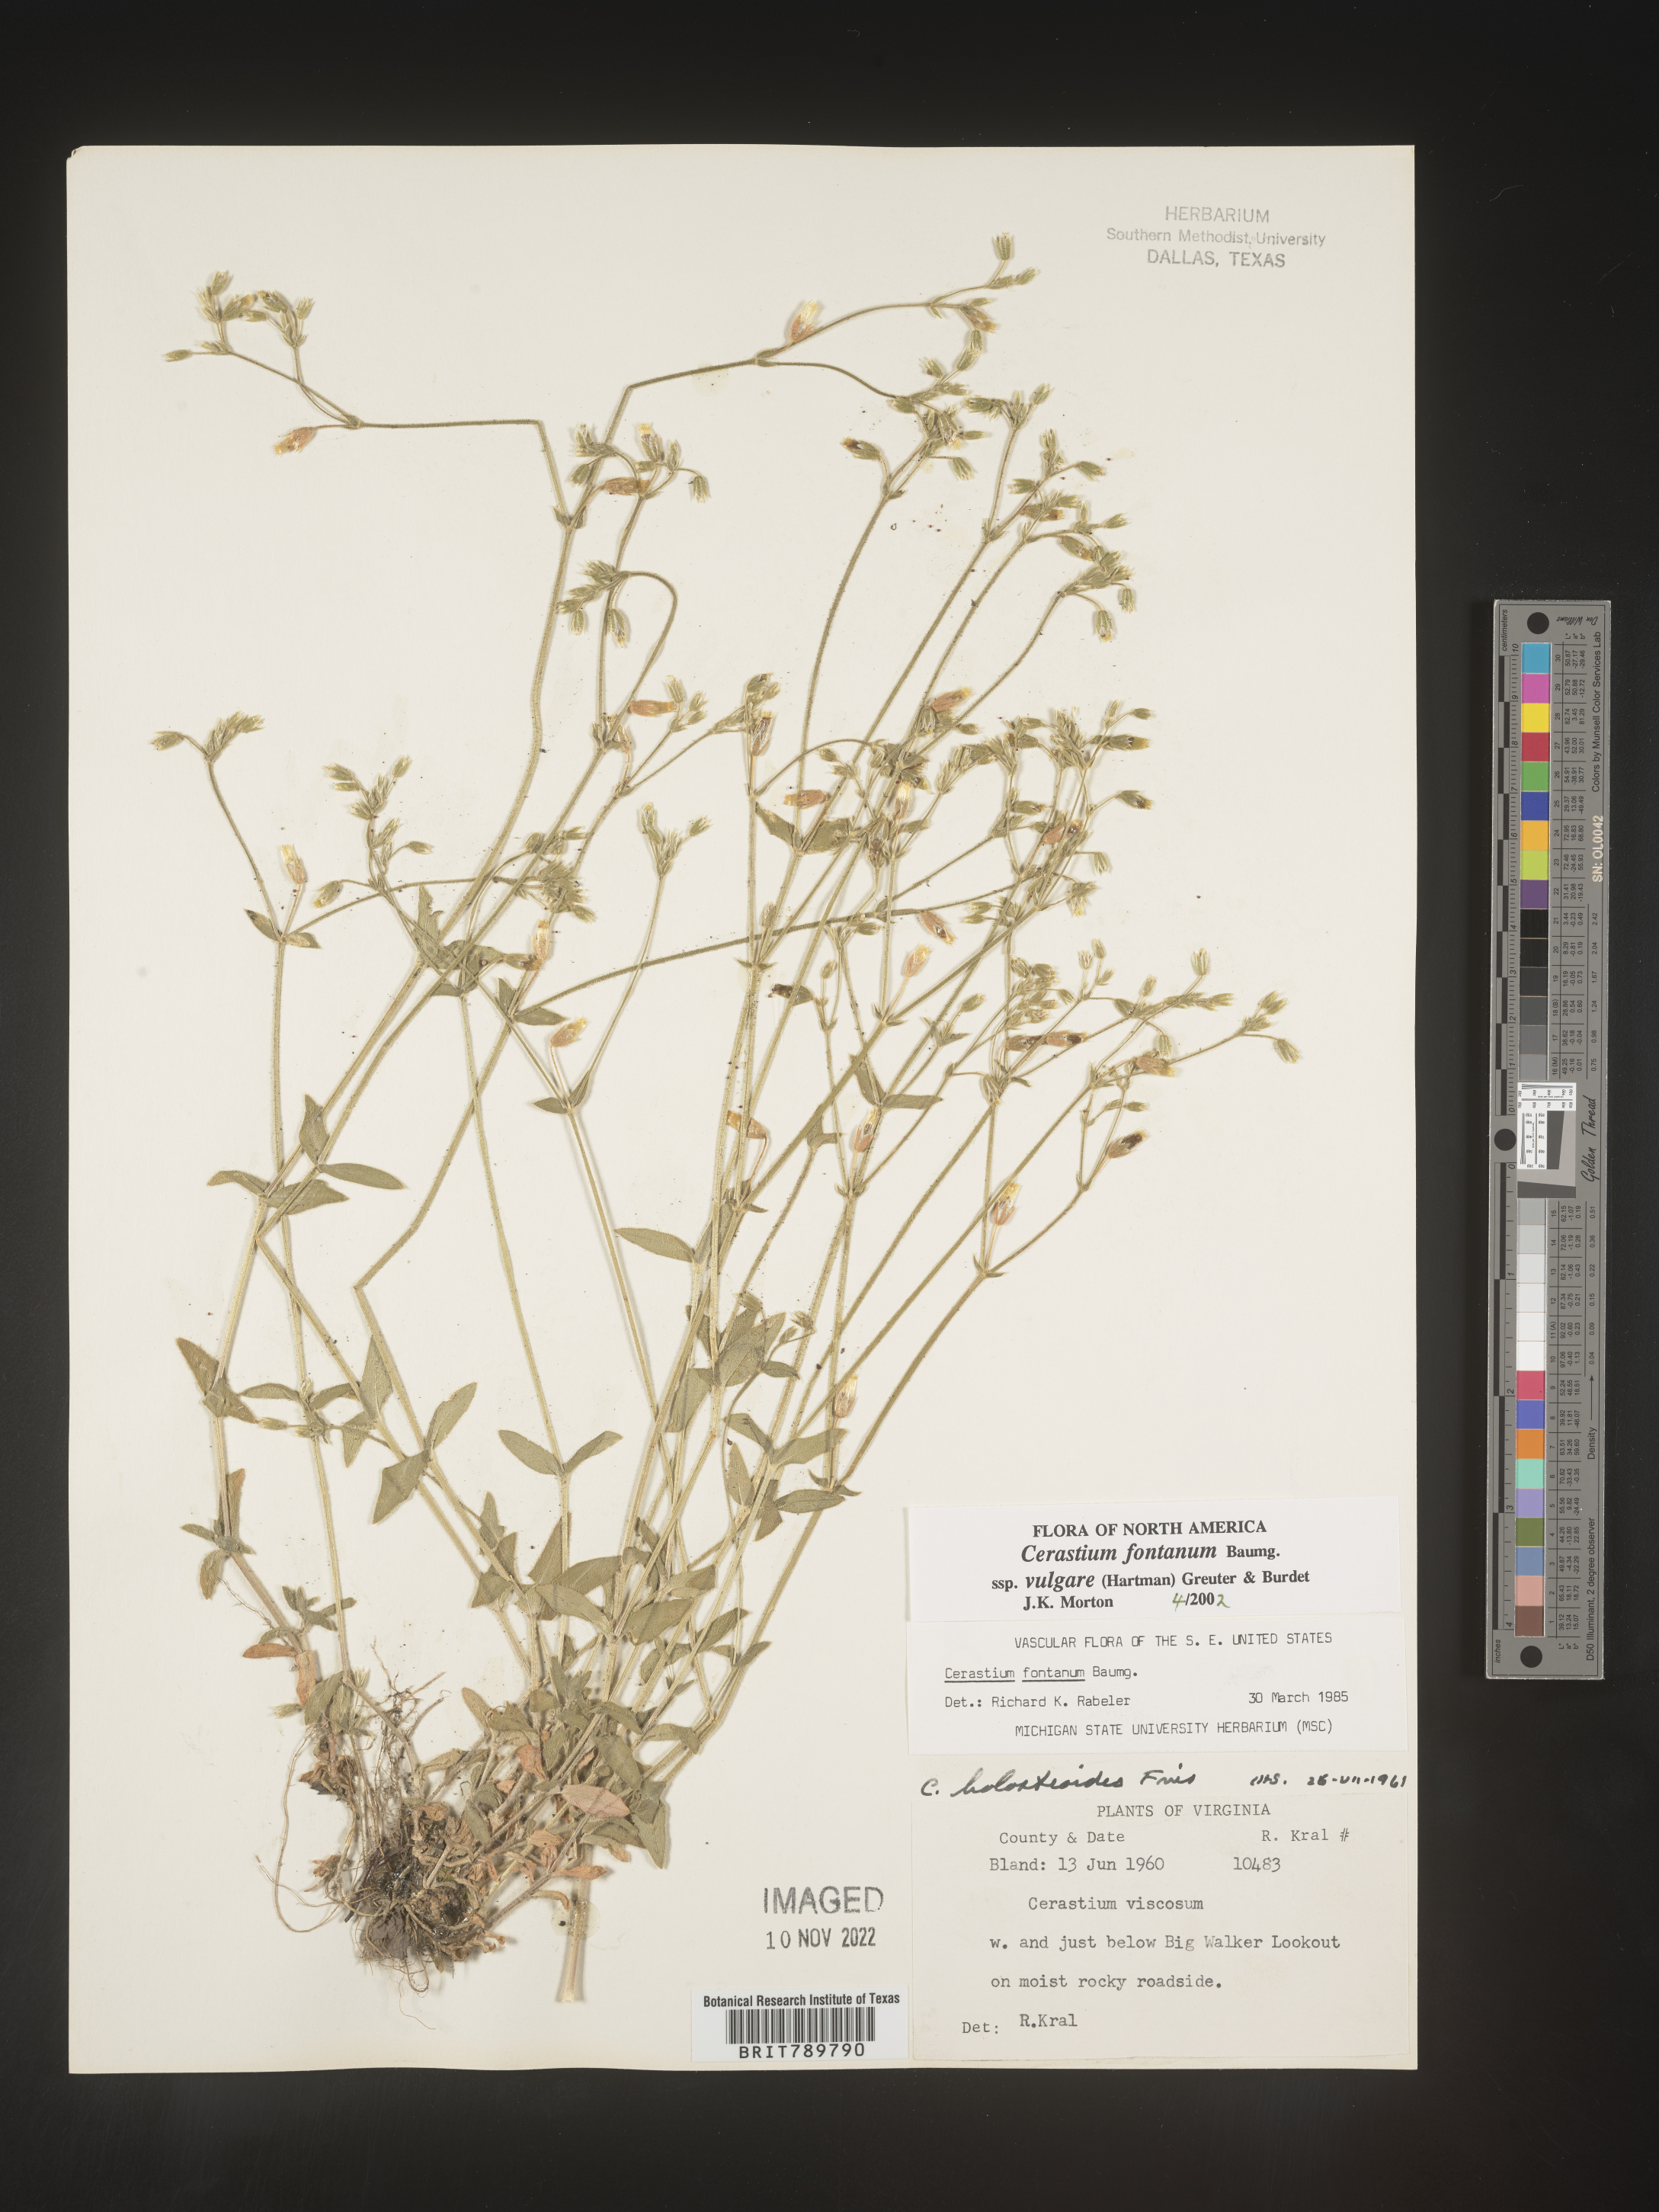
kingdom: Plantae
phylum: Tracheophyta
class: Magnoliopsida
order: Caryophyllales
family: Caryophyllaceae
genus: Cerastium
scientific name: Cerastium fontanum
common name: Common mouse-ear
